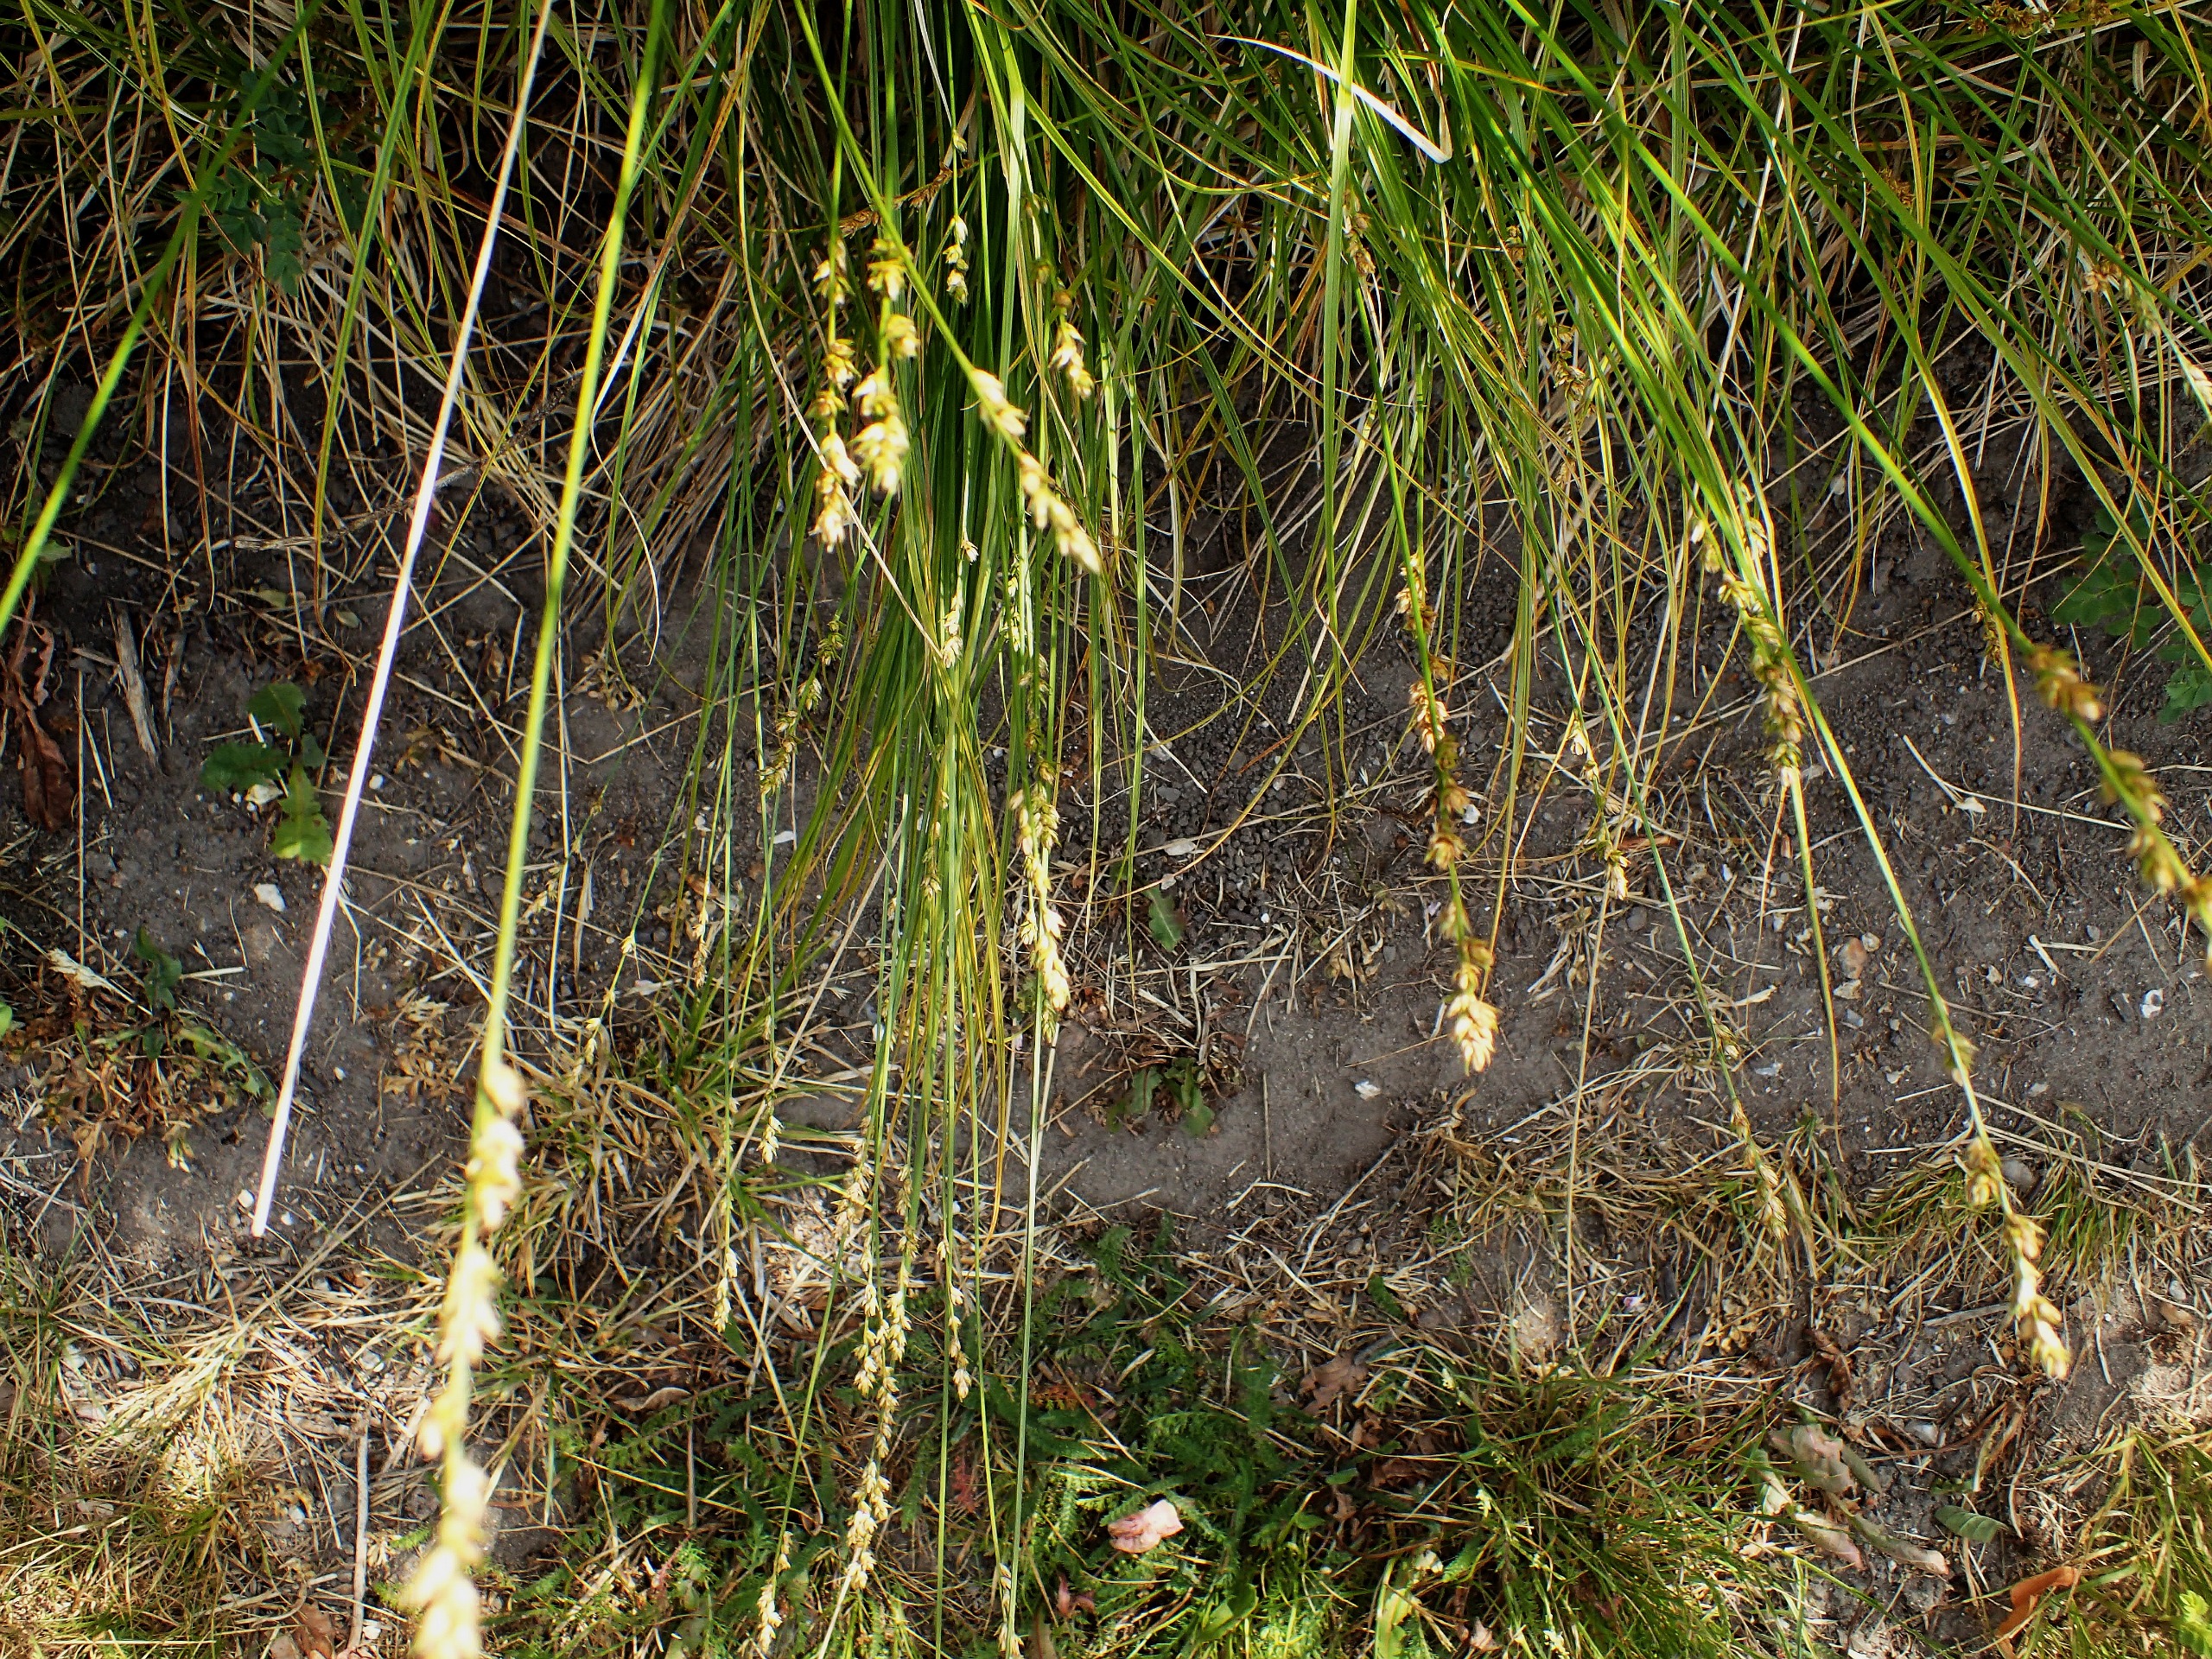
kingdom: Plantae
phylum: Tracheophyta
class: Liliopsida
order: Poales
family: Cyperaceae
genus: Carex
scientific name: Carex divulsa
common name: Mellembrudt star
